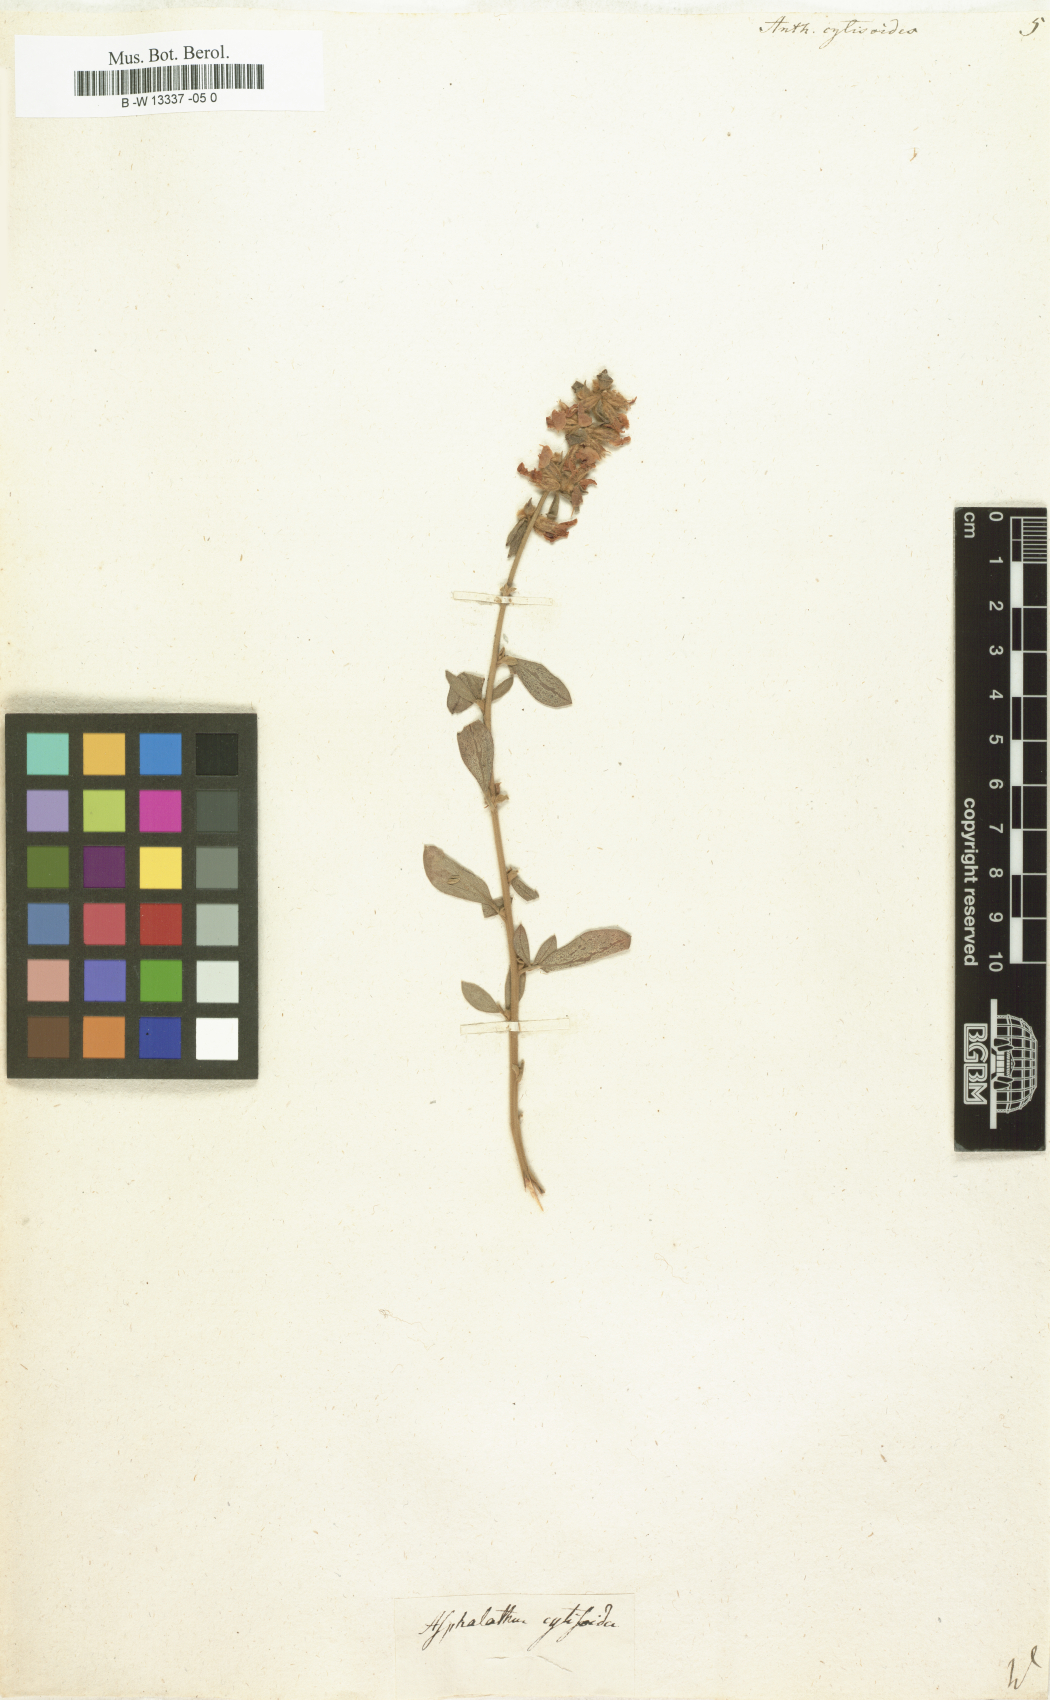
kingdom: Plantae
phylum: Tracheophyta
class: Magnoliopsida
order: Fabales
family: Fabaceae
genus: Anthyllis
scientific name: Anthyllis cytisoides
